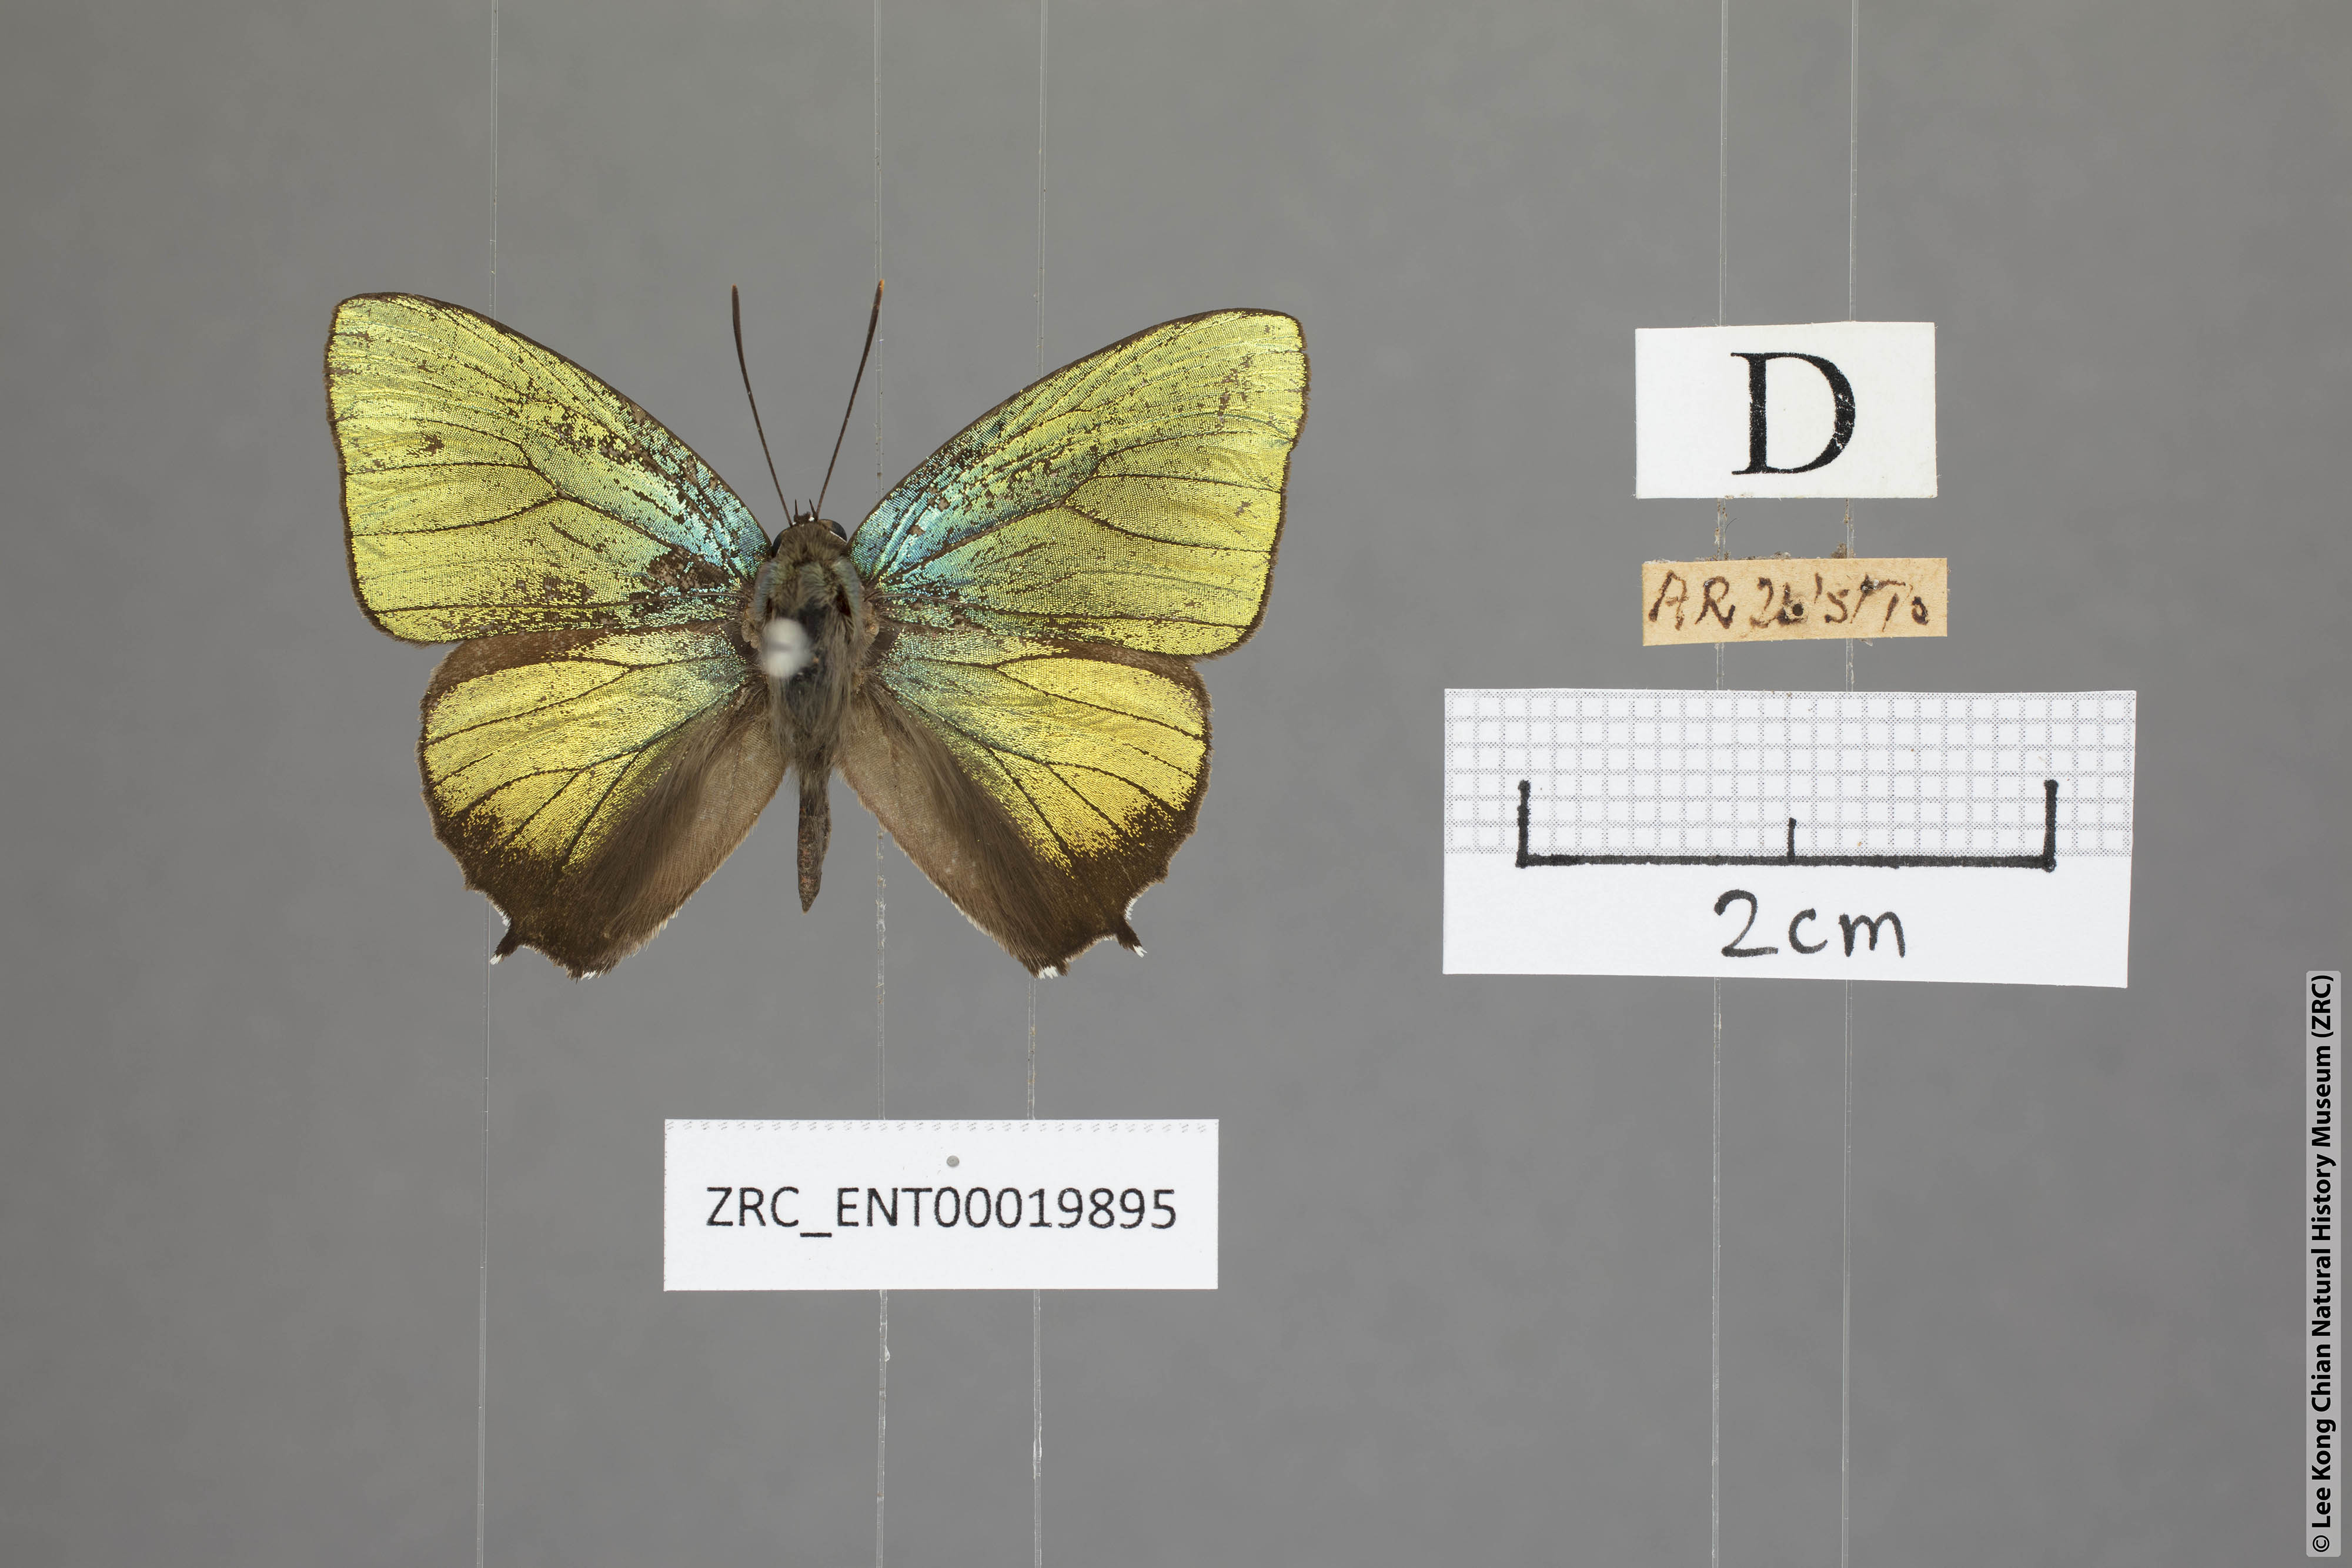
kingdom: Animalia
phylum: Arthropoda
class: Insecta
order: Lepidoptera
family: Lycaenidae
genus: Arhopala
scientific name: Arhopala trogon
